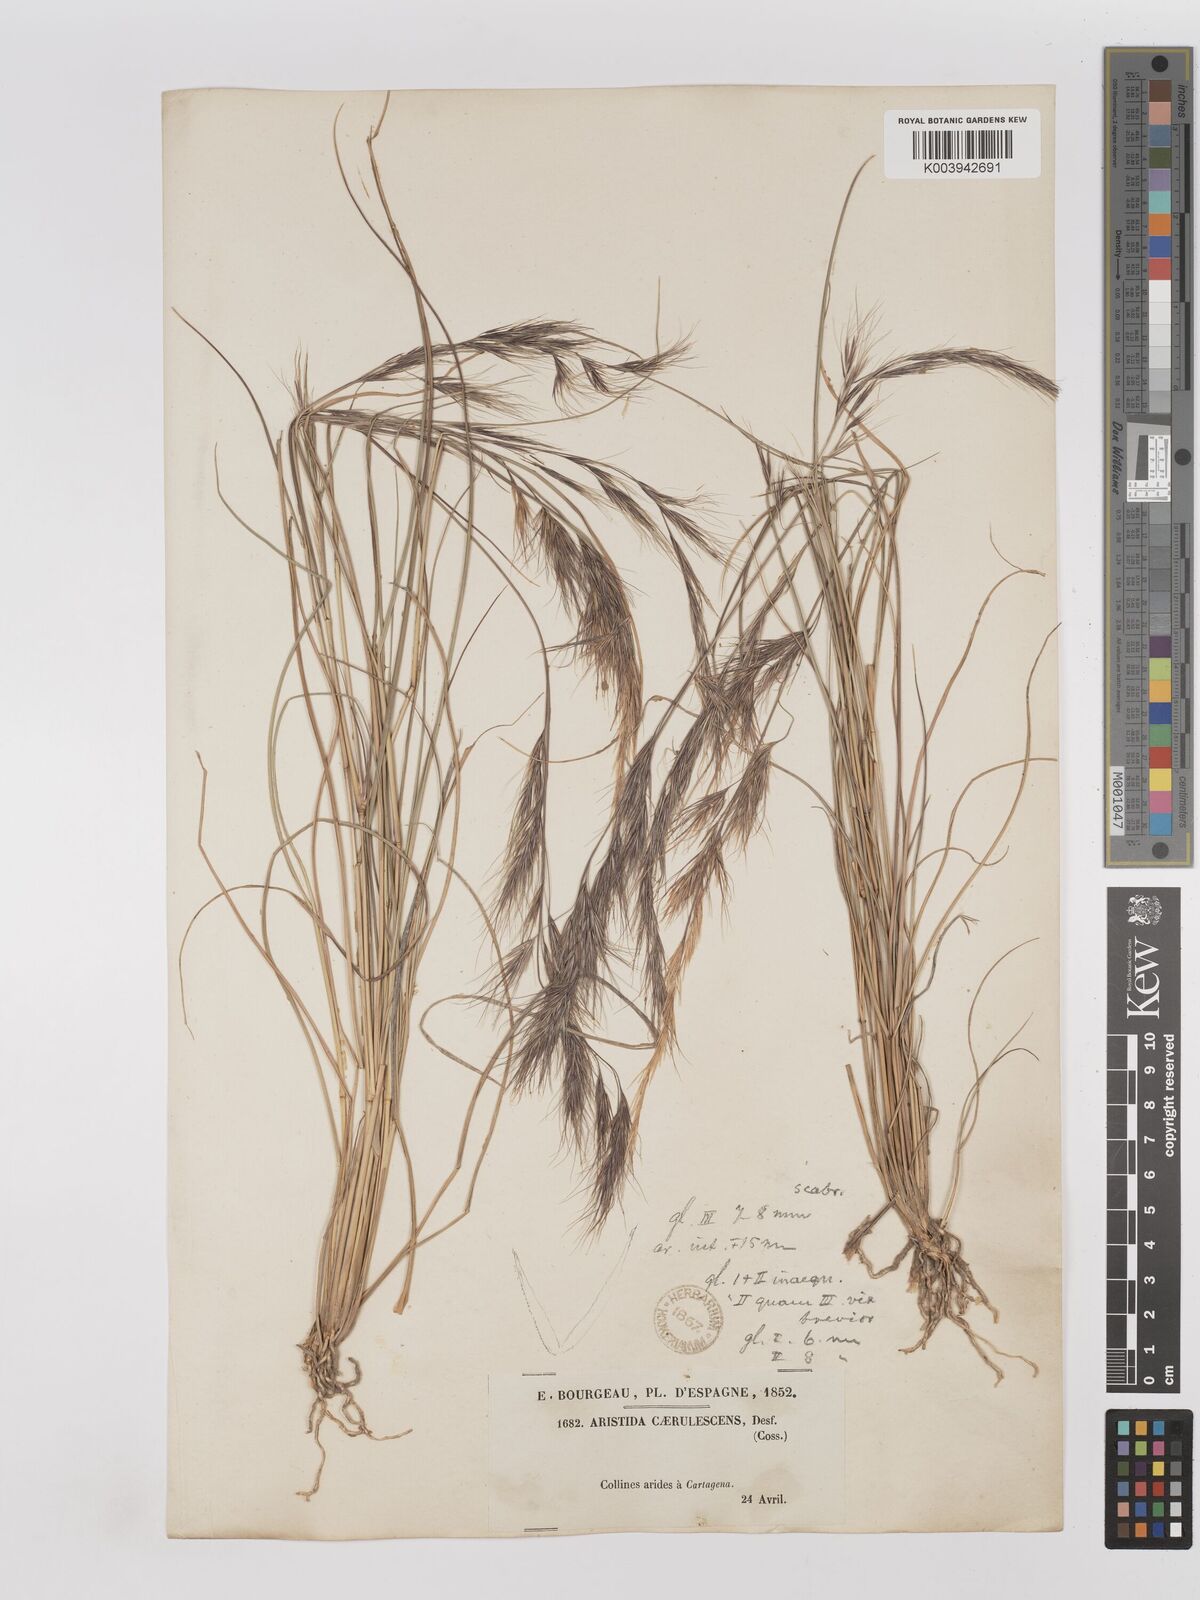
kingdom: Plantae
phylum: Tracheophyta
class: Liliopsida
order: Poales
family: Poaceae
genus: Aristida
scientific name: Aristida adscensionis
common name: Sixweeks threeawn
